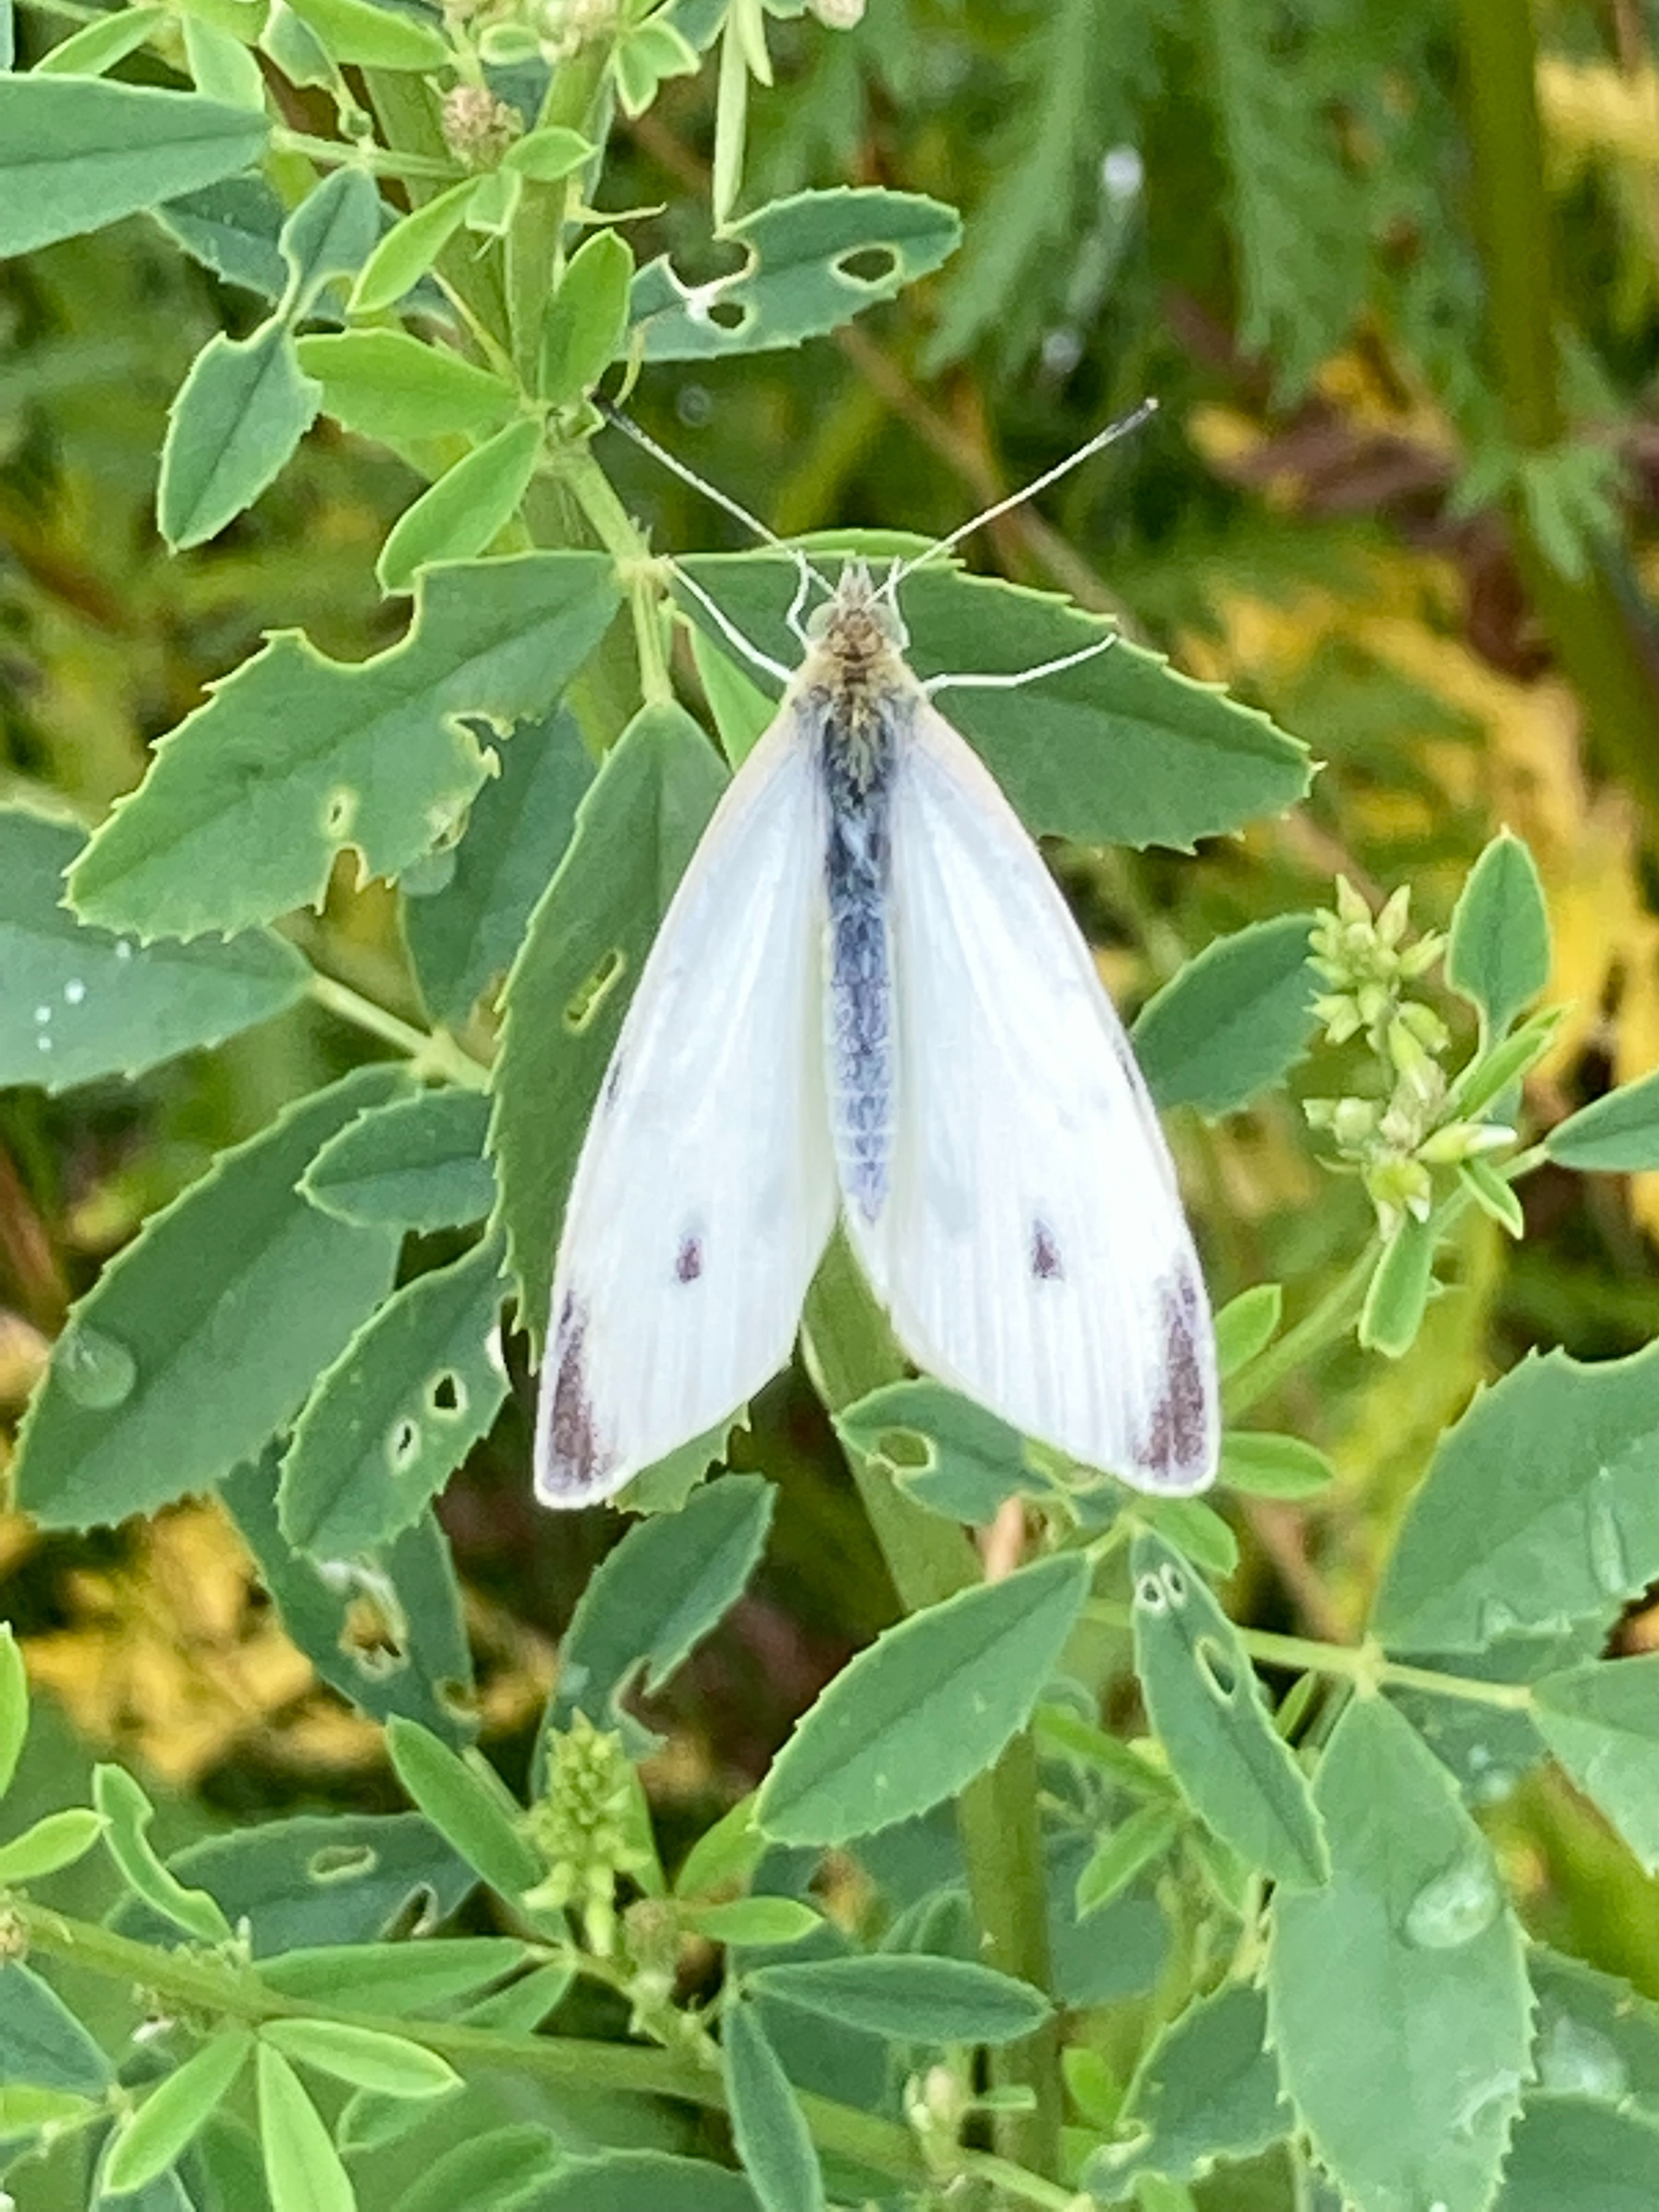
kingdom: Animalia
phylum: Arthropoda
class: Insecta
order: Lepidoptera
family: Pieridae
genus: Pieris
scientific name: Pieris rapae
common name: Lille kålsommerfugl
